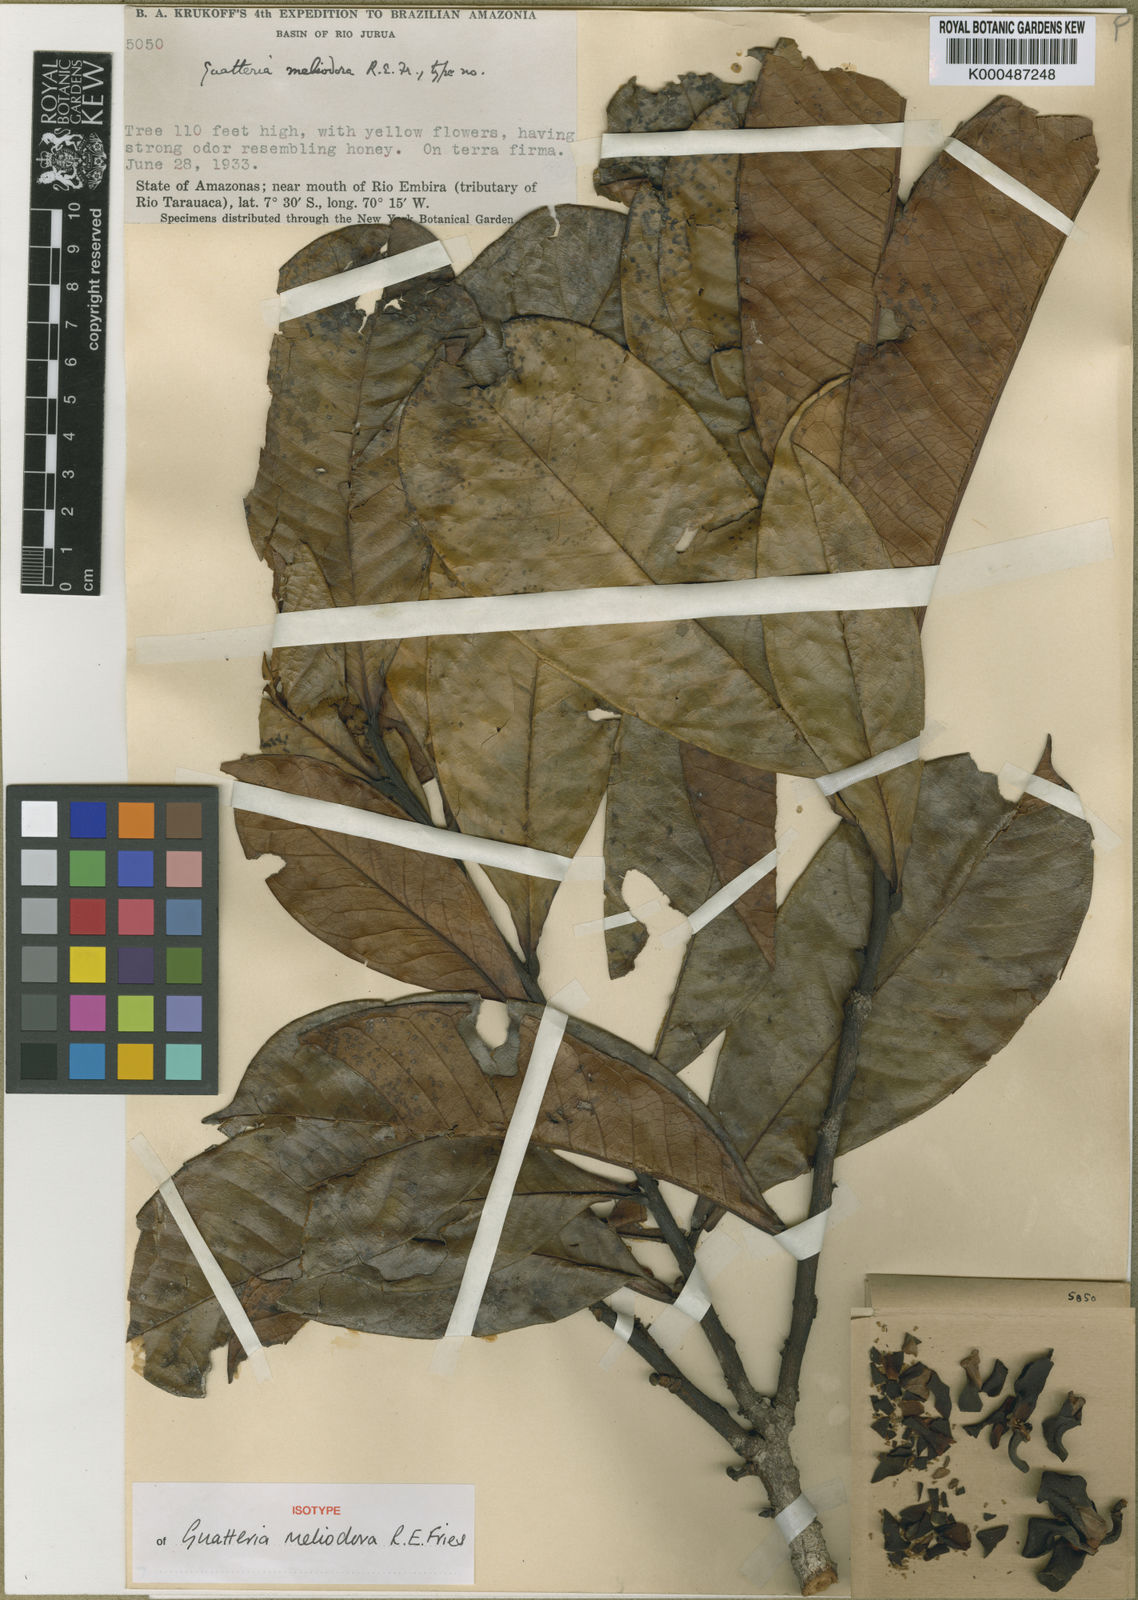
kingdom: Plantae
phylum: Tracheophyta
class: Magnoliopsida
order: Magnoliales
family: Annonaceae
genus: Guatteria
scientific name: Guatteria meliodora
